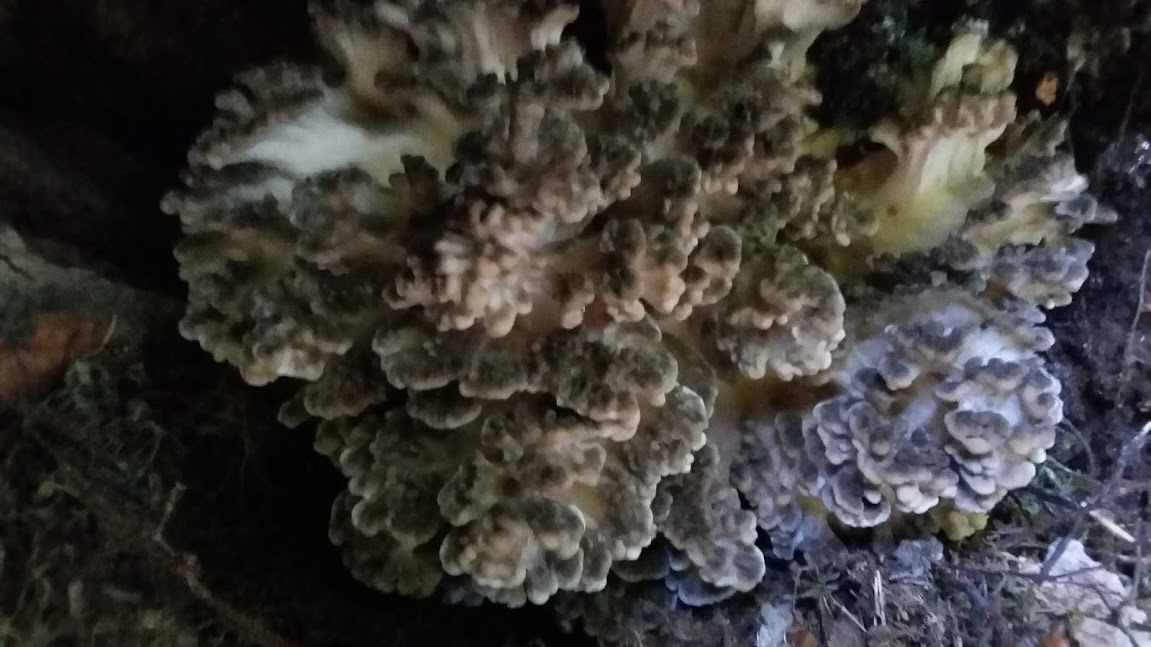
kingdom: Fungi
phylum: Basidiomycota
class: Agaricomycetes
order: Polyporales
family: Grifolaceae
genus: Grifola
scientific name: Grifola frondosa
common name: tueporesvamp
